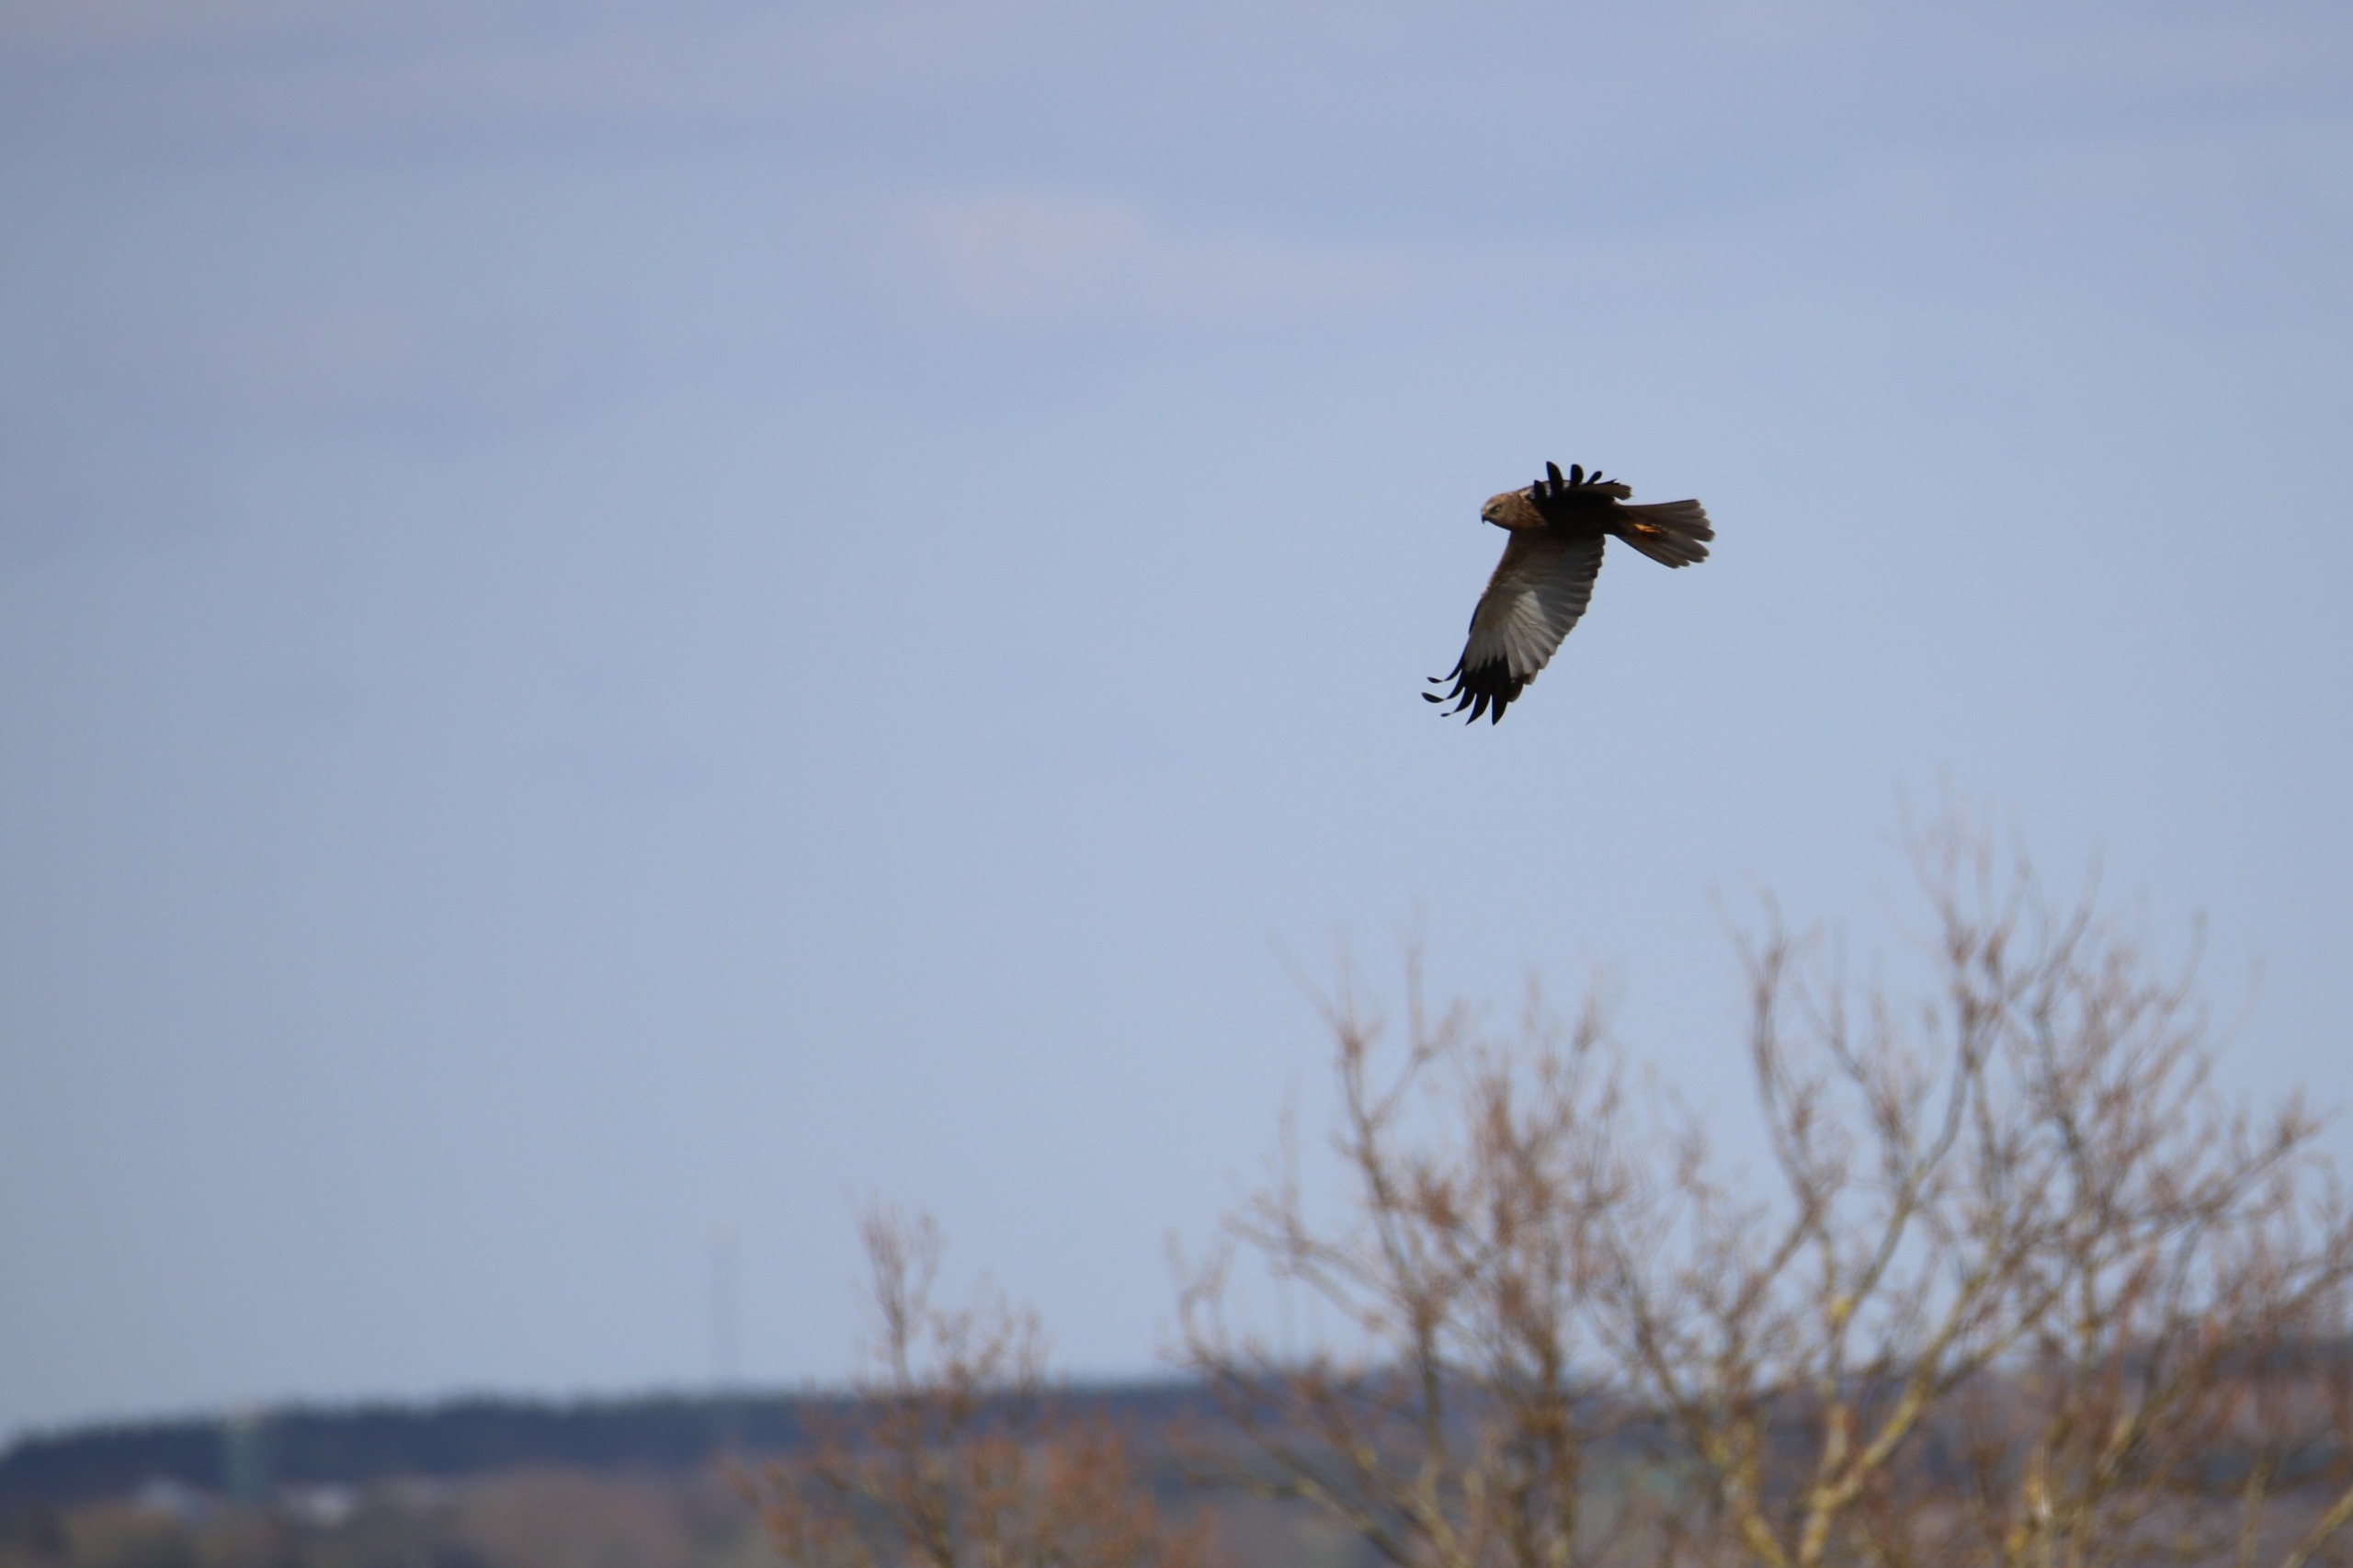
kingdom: Animalia
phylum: Chordata
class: Aves
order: Accipitriformes
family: Accipitridae
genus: Circus
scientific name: Circus aeruginosus
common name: Rørhøg
